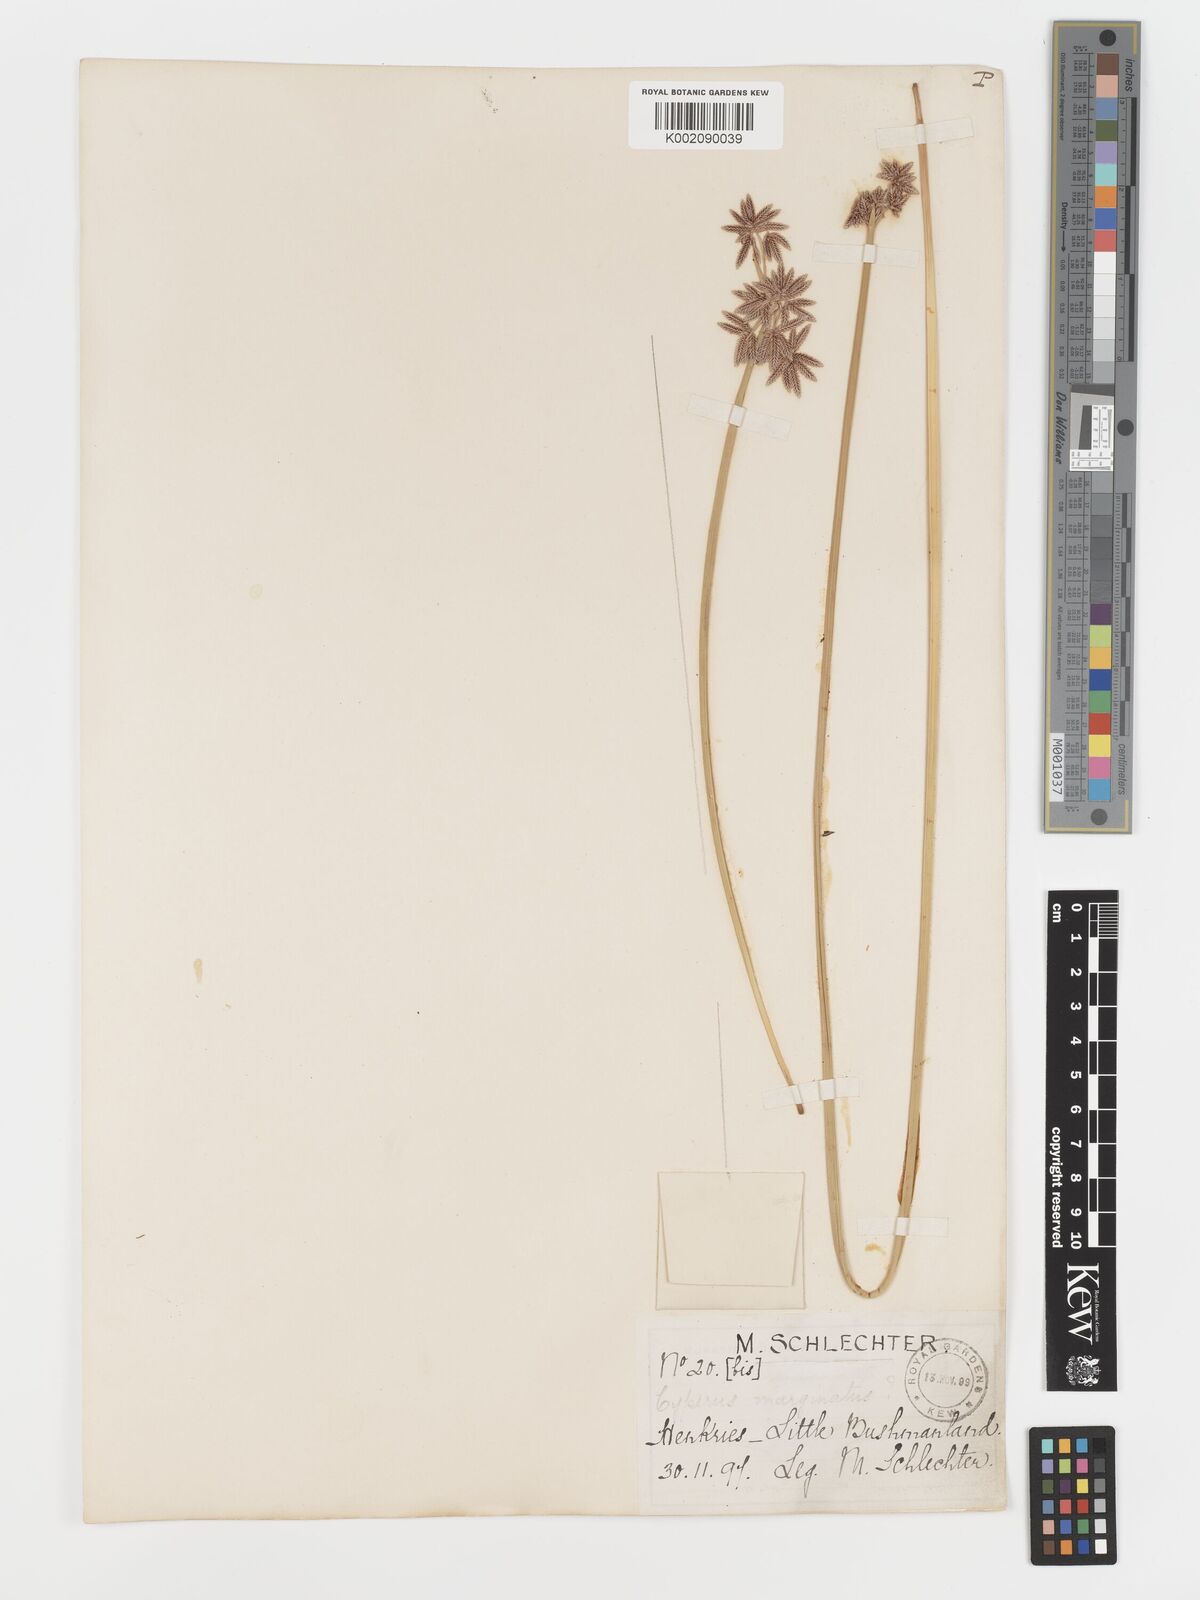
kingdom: Plantae
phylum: Tracheophyta
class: Liliopsida
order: Poales
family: Cyperaceae
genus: Cyperus
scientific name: Cyperus marginatus
